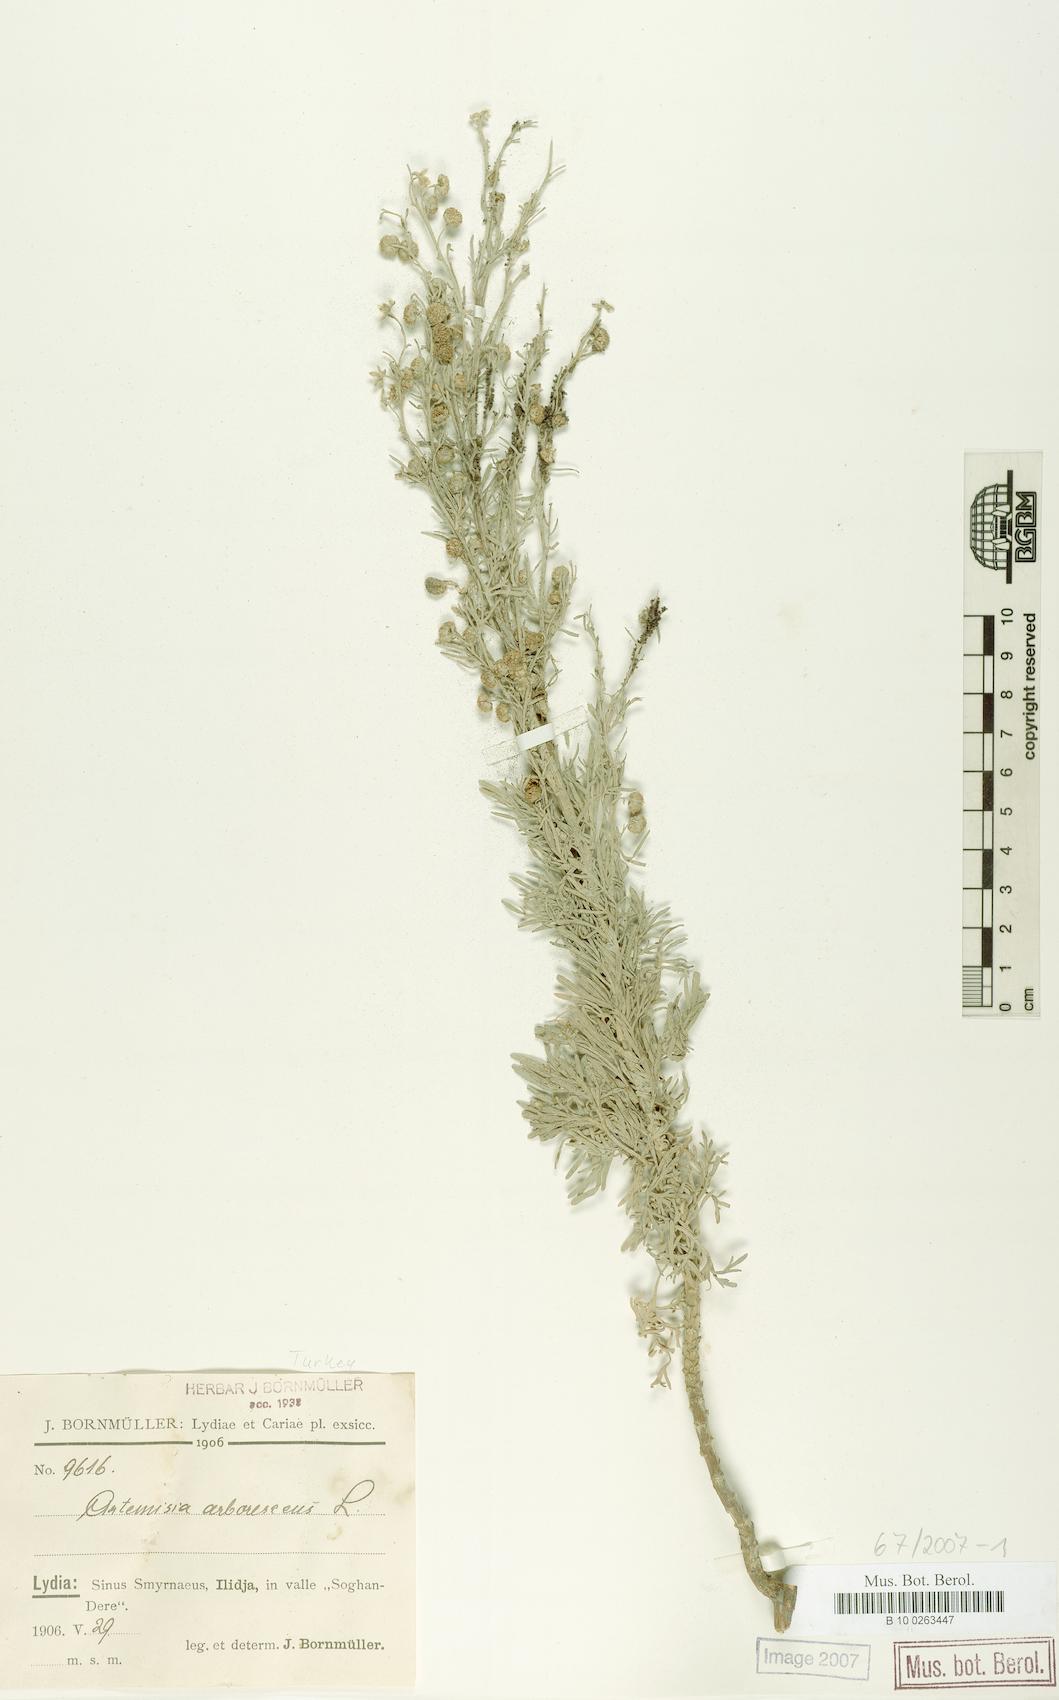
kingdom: Plantae
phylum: Tracheophyta
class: Magnoliopsida
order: Asterales
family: Asteraceae
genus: Artemisia
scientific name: Artemisia arborescens
